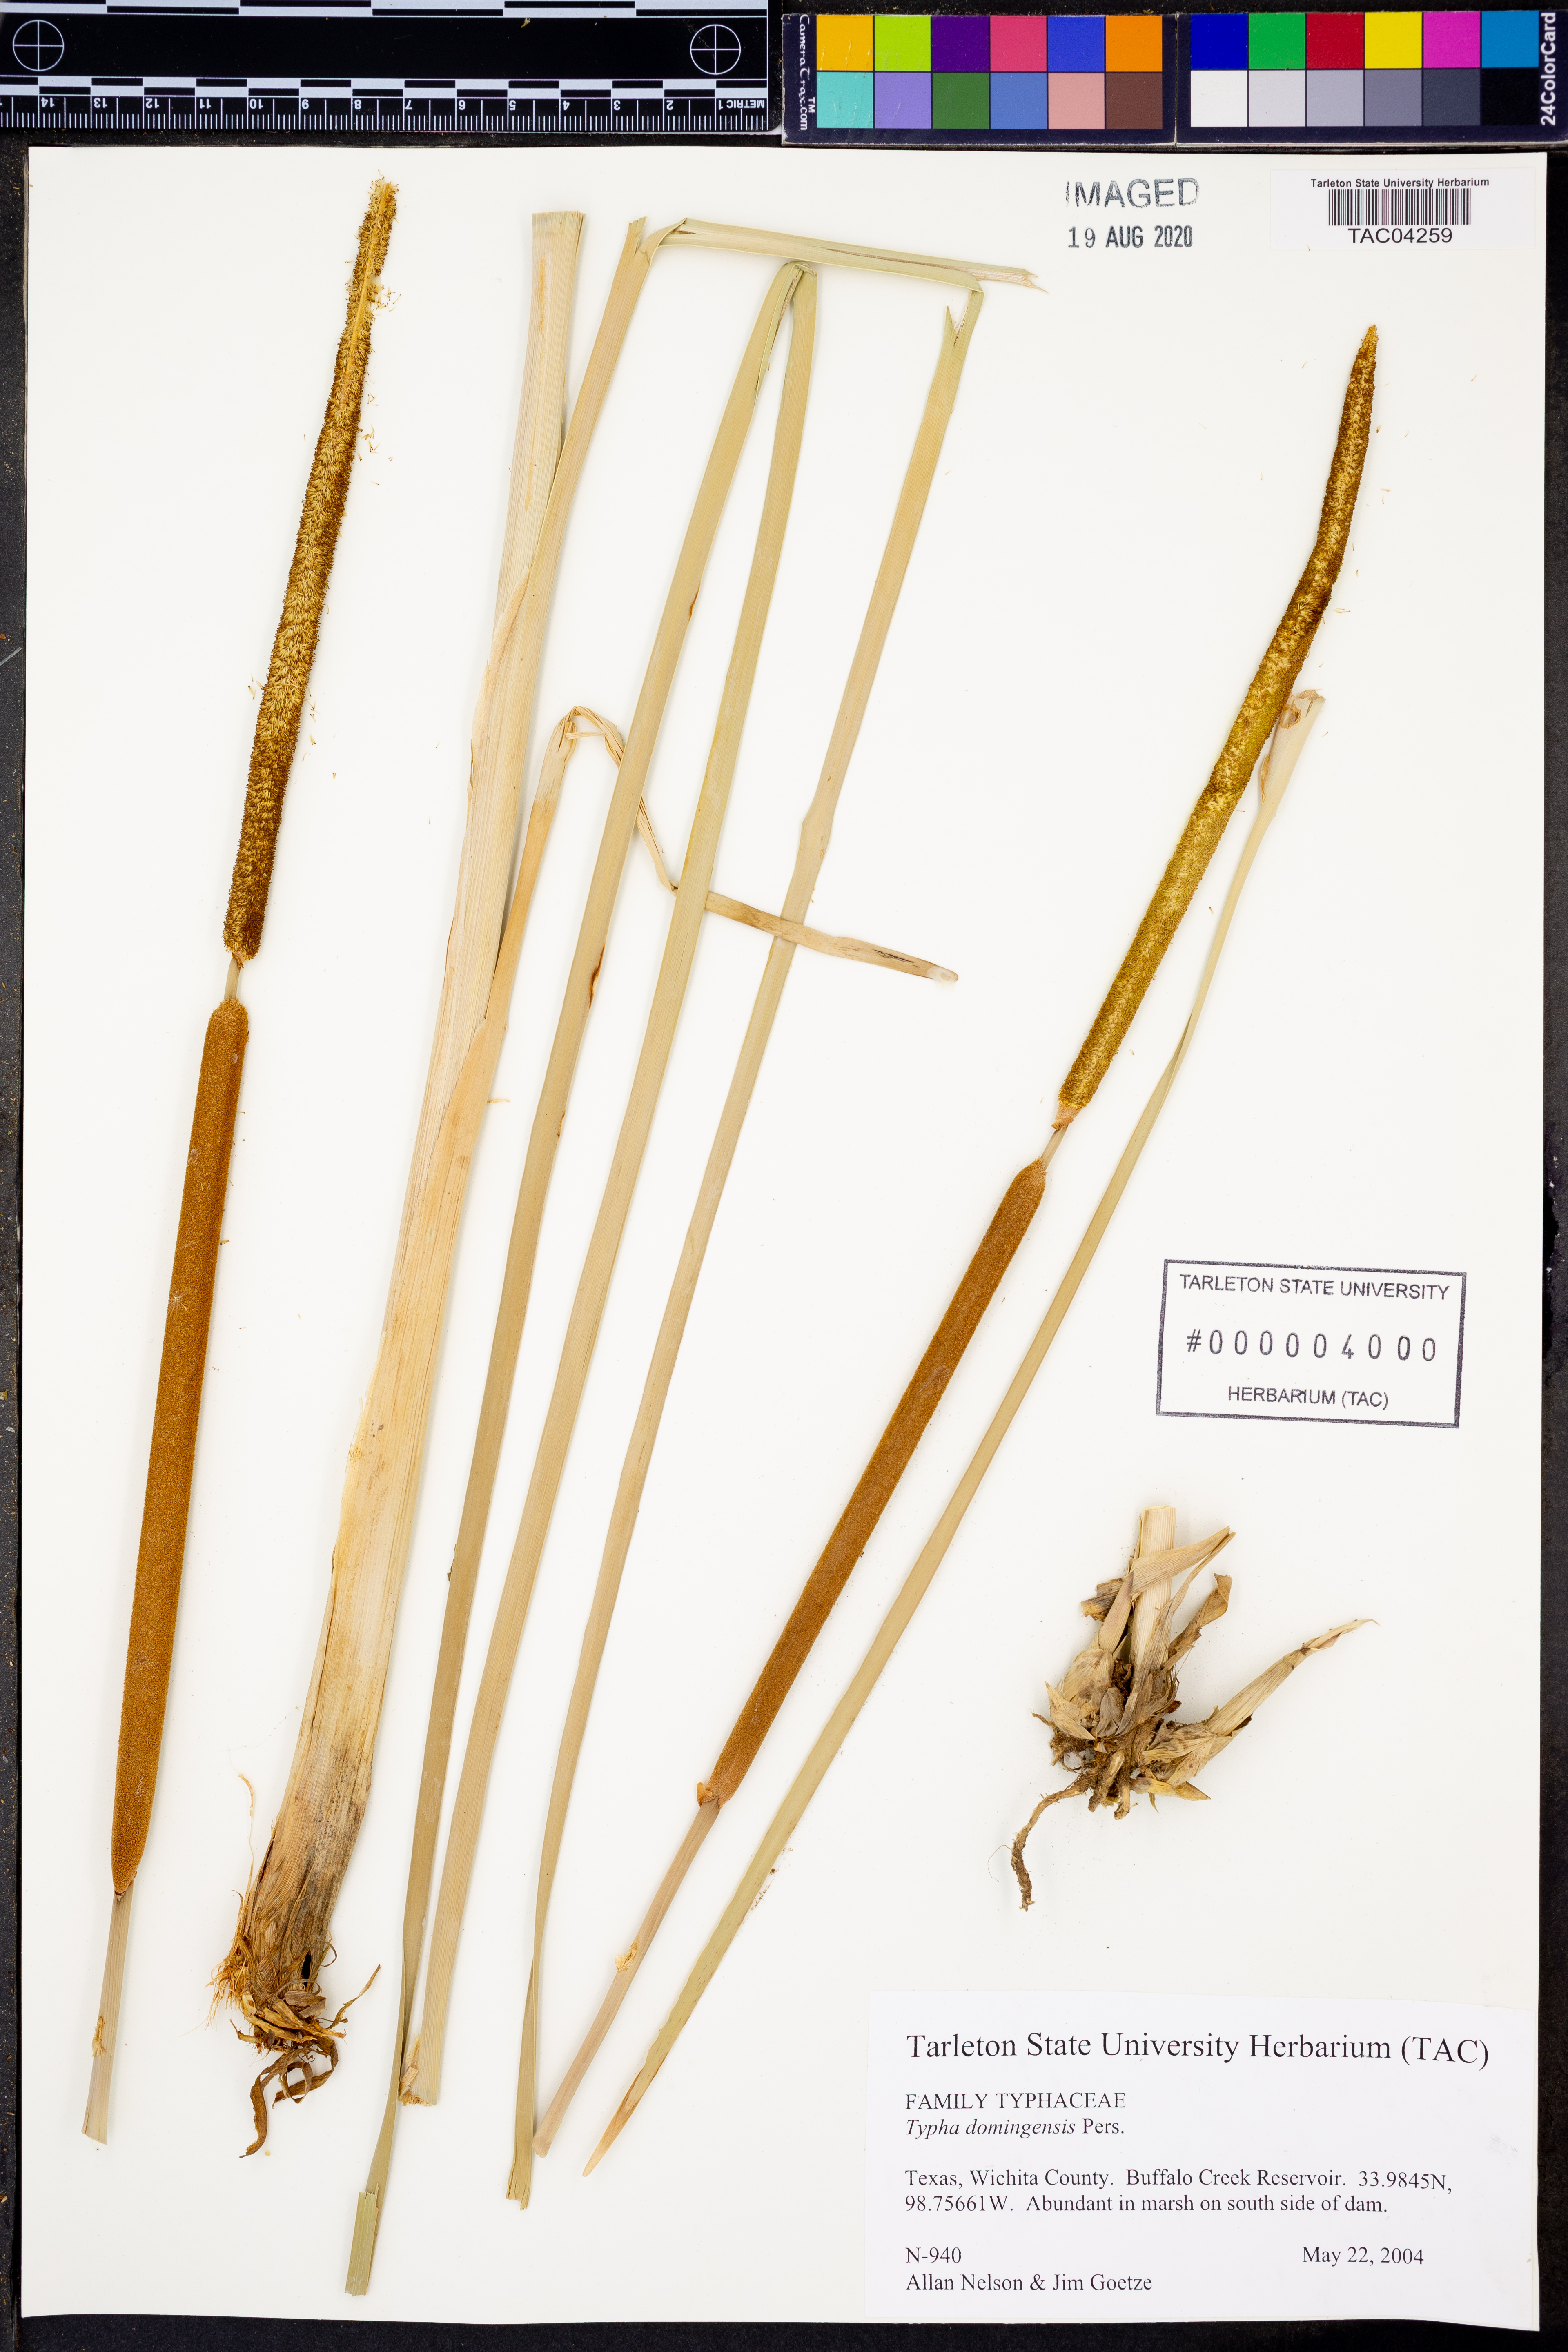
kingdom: Plantae
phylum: Tracheophyta
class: Liliopsida
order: Poales
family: Typhaceae
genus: Typha
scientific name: Typha domingensis
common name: Southern cattail
